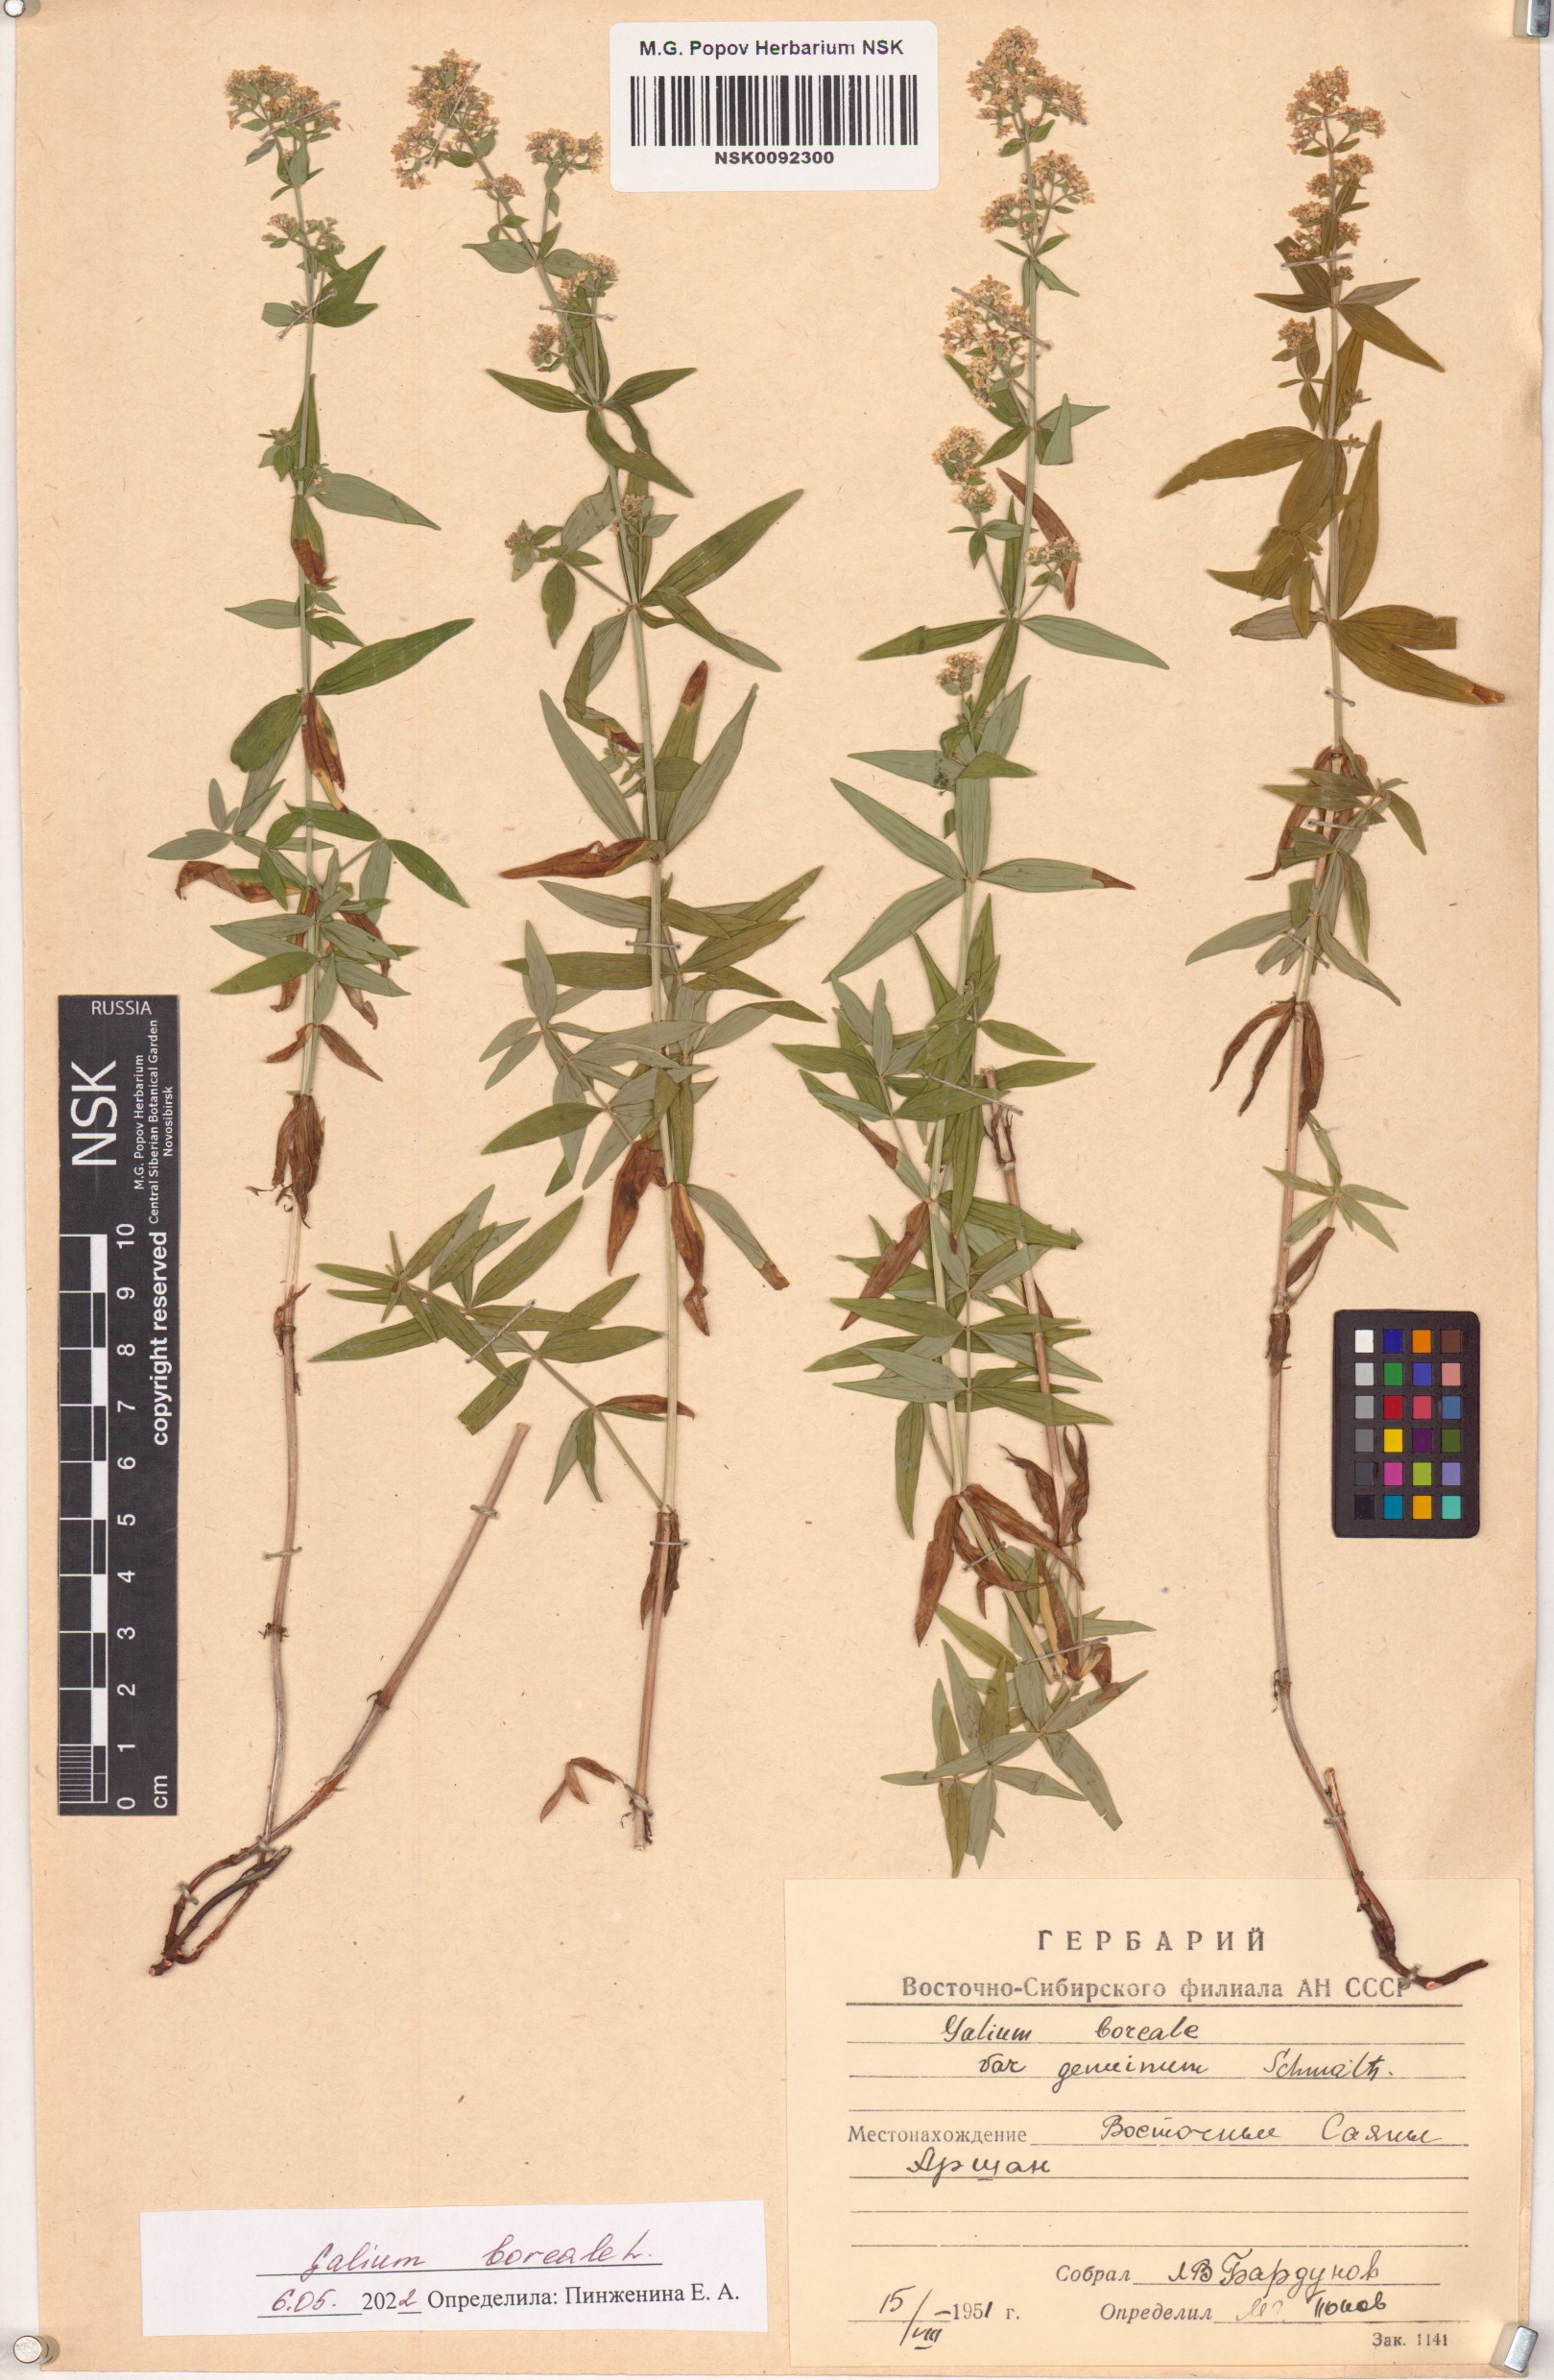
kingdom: Plantae
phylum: Tracheophyta
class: Magnoliopsida
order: Gentianales
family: Rubiaceae
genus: Galium
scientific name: Galium boreale
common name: Northern bedstraw
